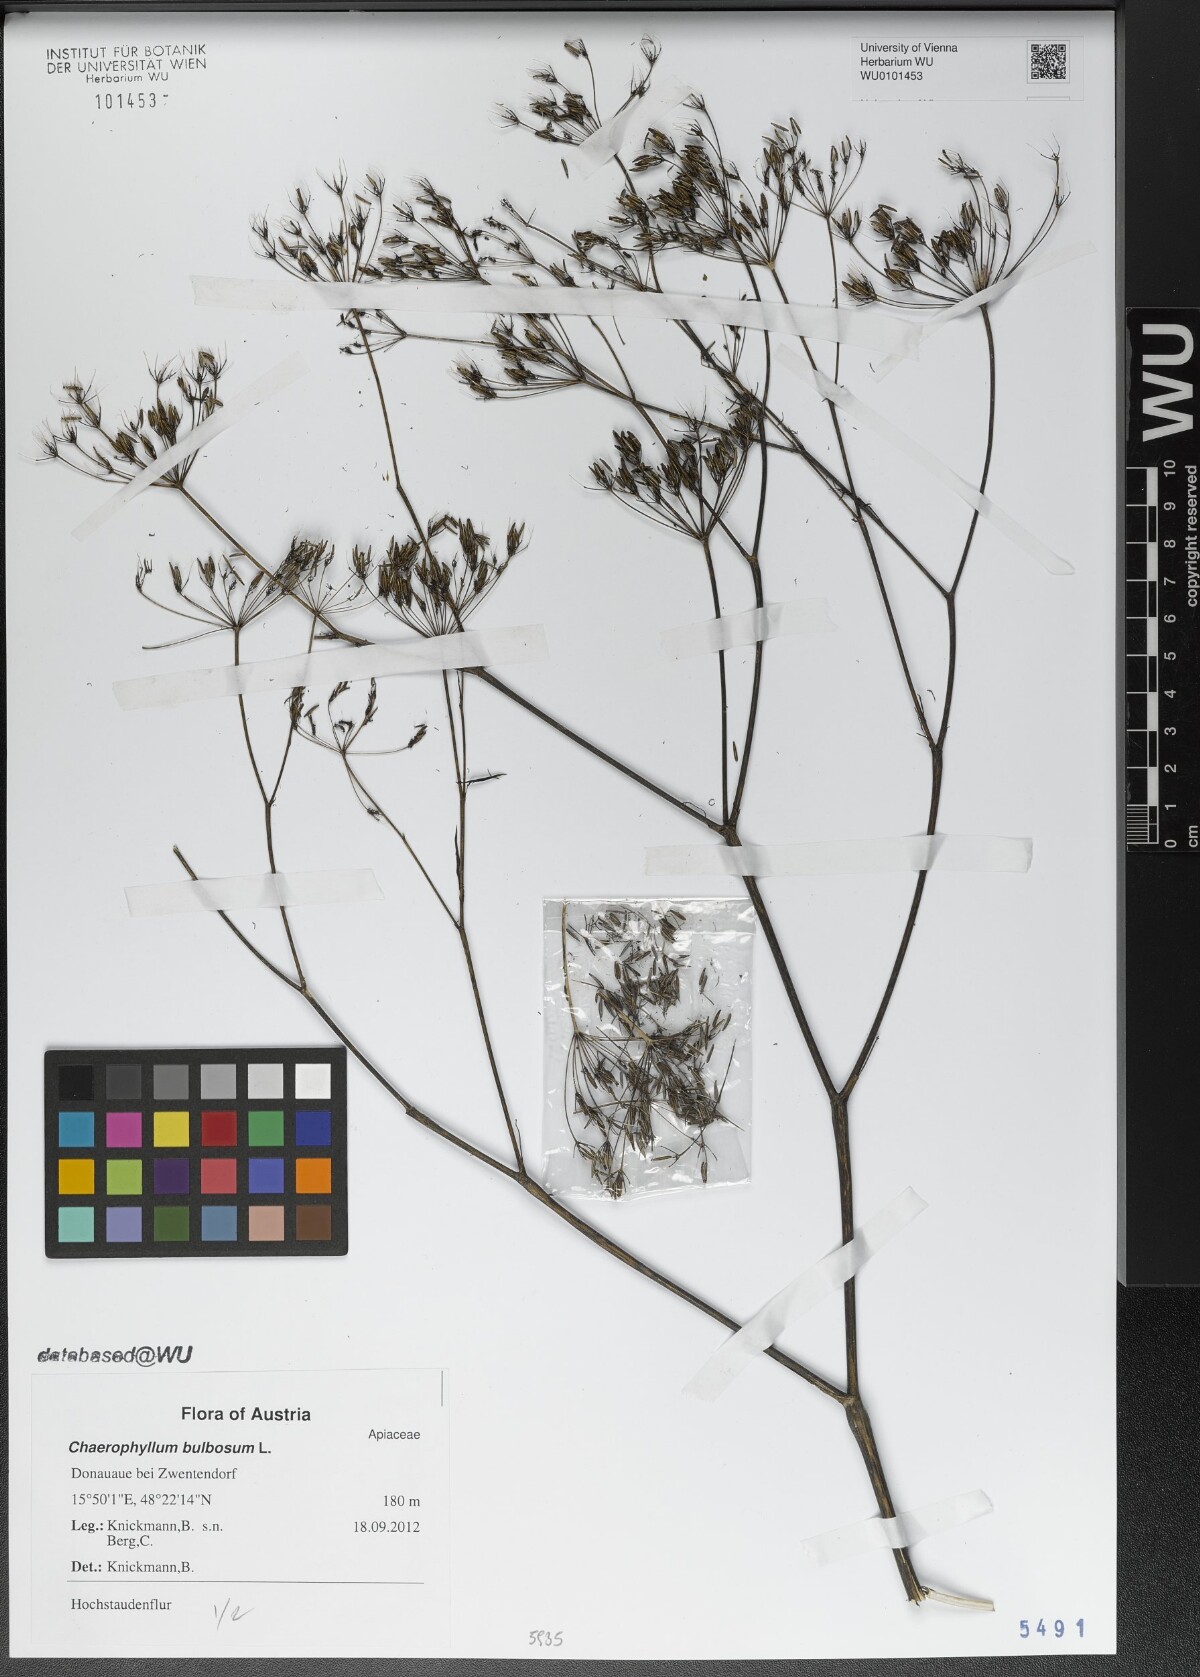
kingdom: Plantae
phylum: Tracheophyta
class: Magnoliopsida
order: Apiales
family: Apiaceae
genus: Chaerophyllum
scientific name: Chaerophyllum bulbosum
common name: Bulbous chervil
